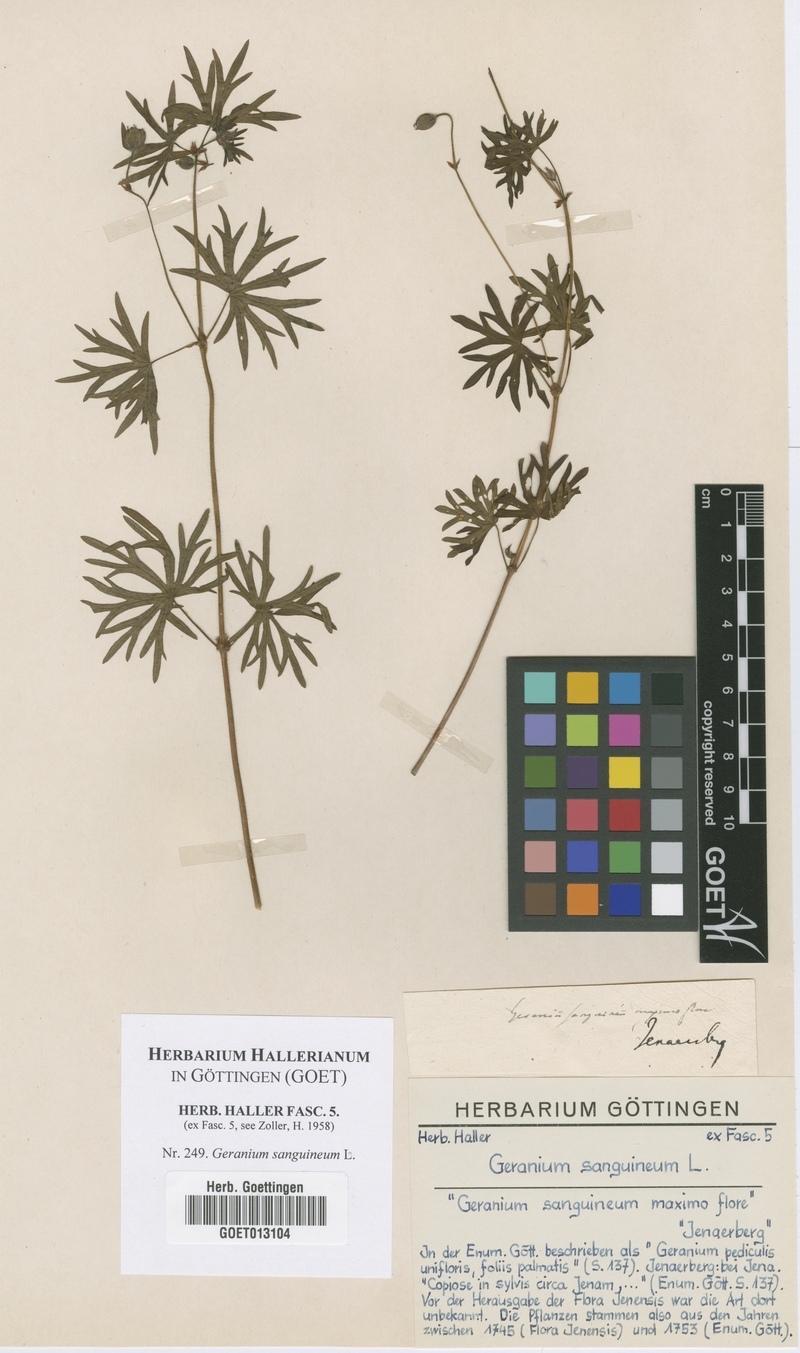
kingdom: Plantae
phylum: Tracheophyta
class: Magnoliopsida
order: Geraniales
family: Geraniaceae
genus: Geranium
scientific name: Geranium sanguineum
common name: Bloody crane's-bill
